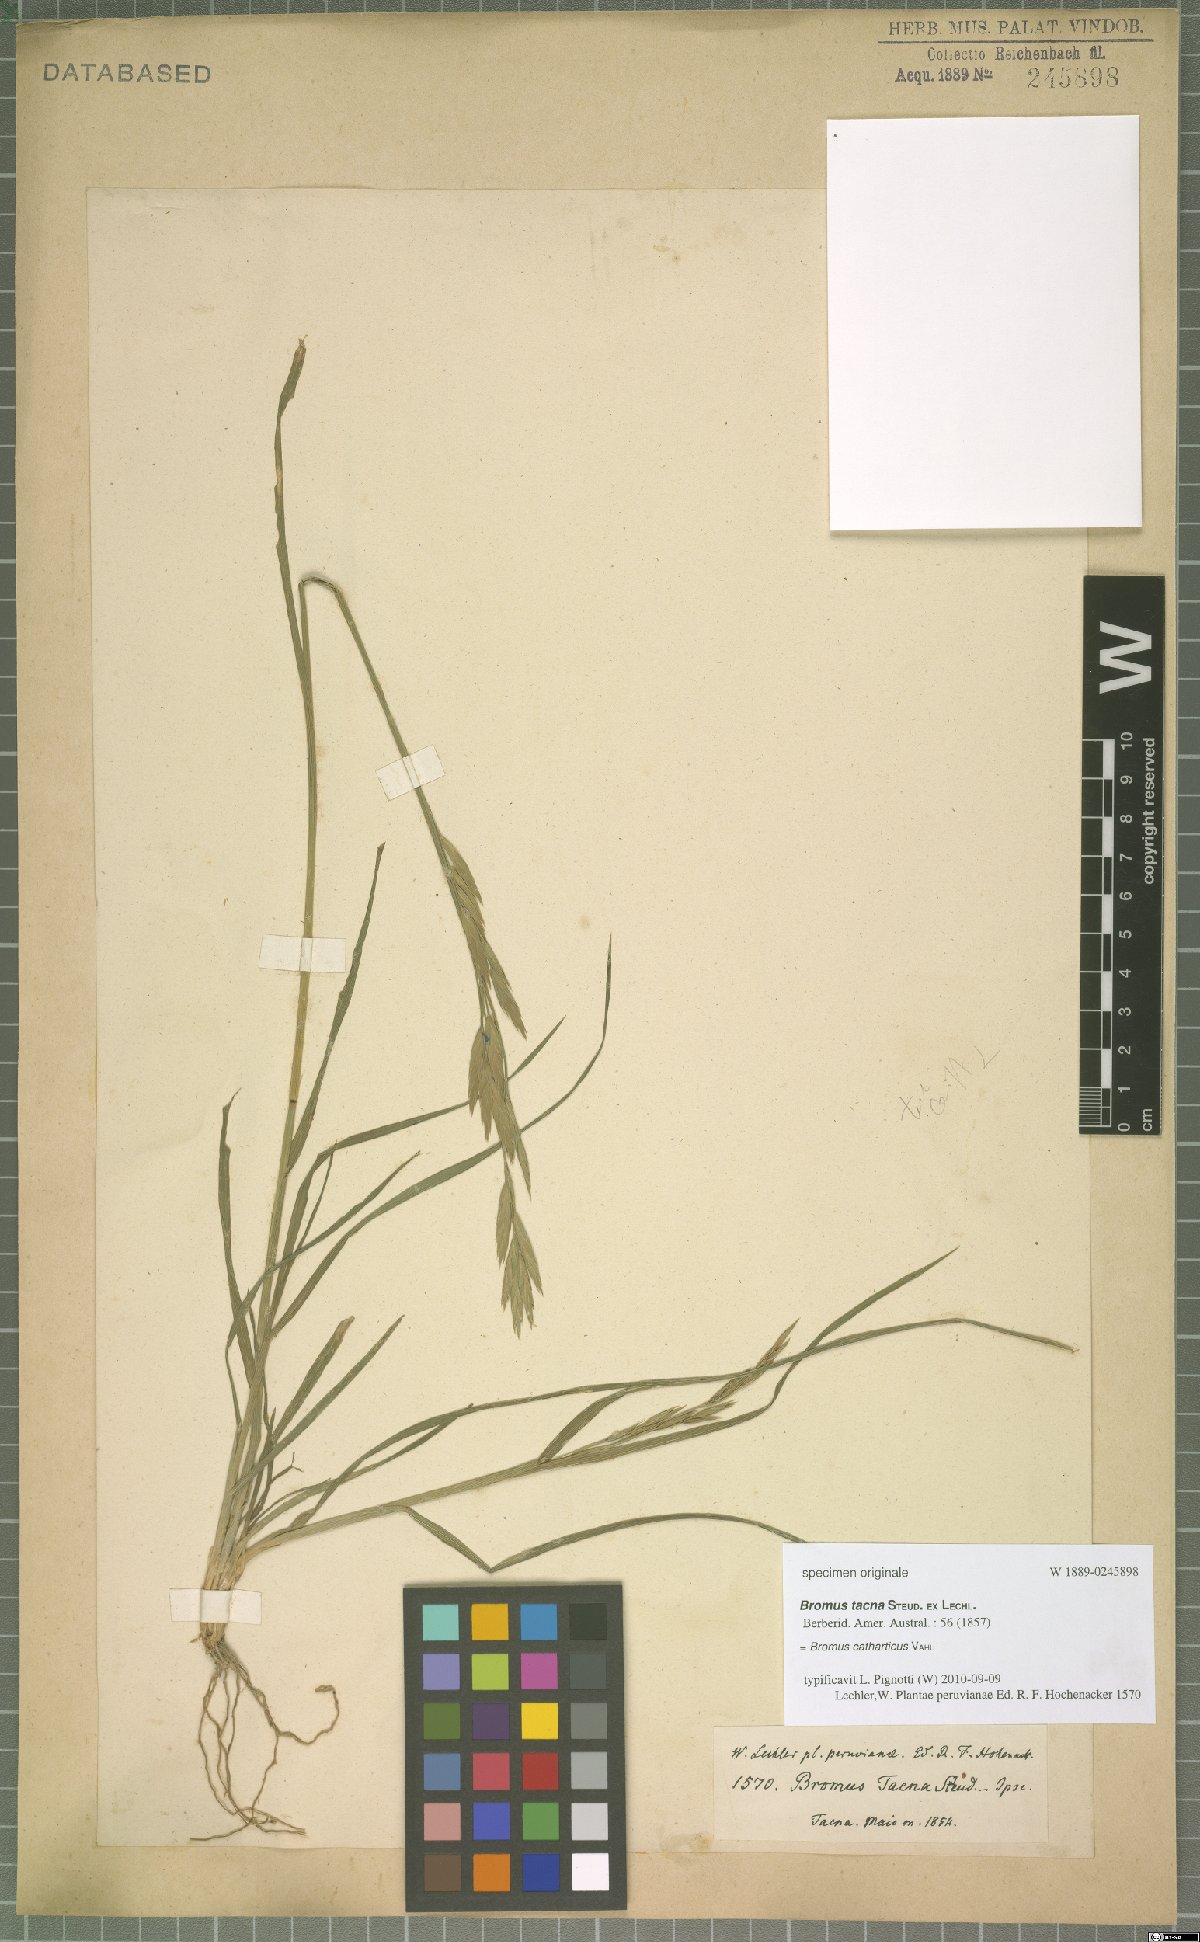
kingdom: Plantae
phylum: Tracheophyta
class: Liliopsida
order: Poales
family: Poaceae
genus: Bromus
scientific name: Bromus catharticus
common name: Rescuegrass
